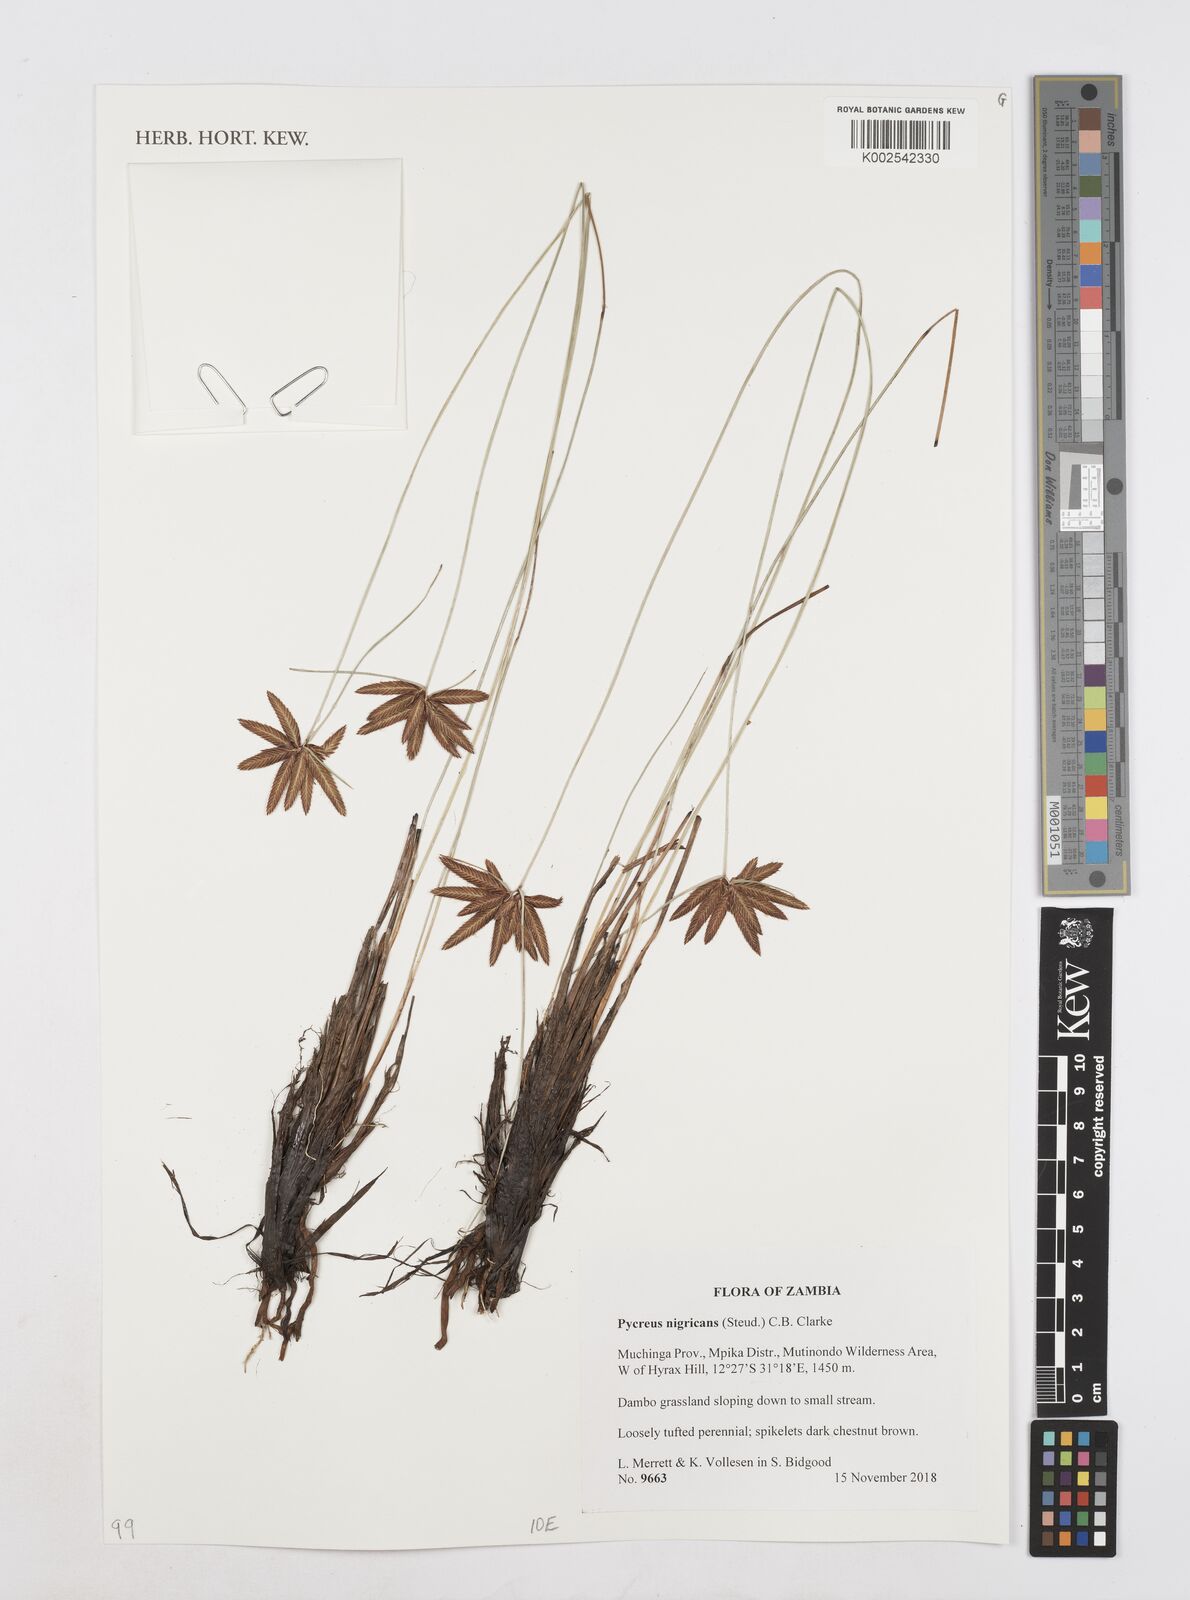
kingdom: Plantae
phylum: Tracheophyta
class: Liliopsida
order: Poales
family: Cyperaceae
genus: Cyperus
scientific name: Cyperus nigricans
